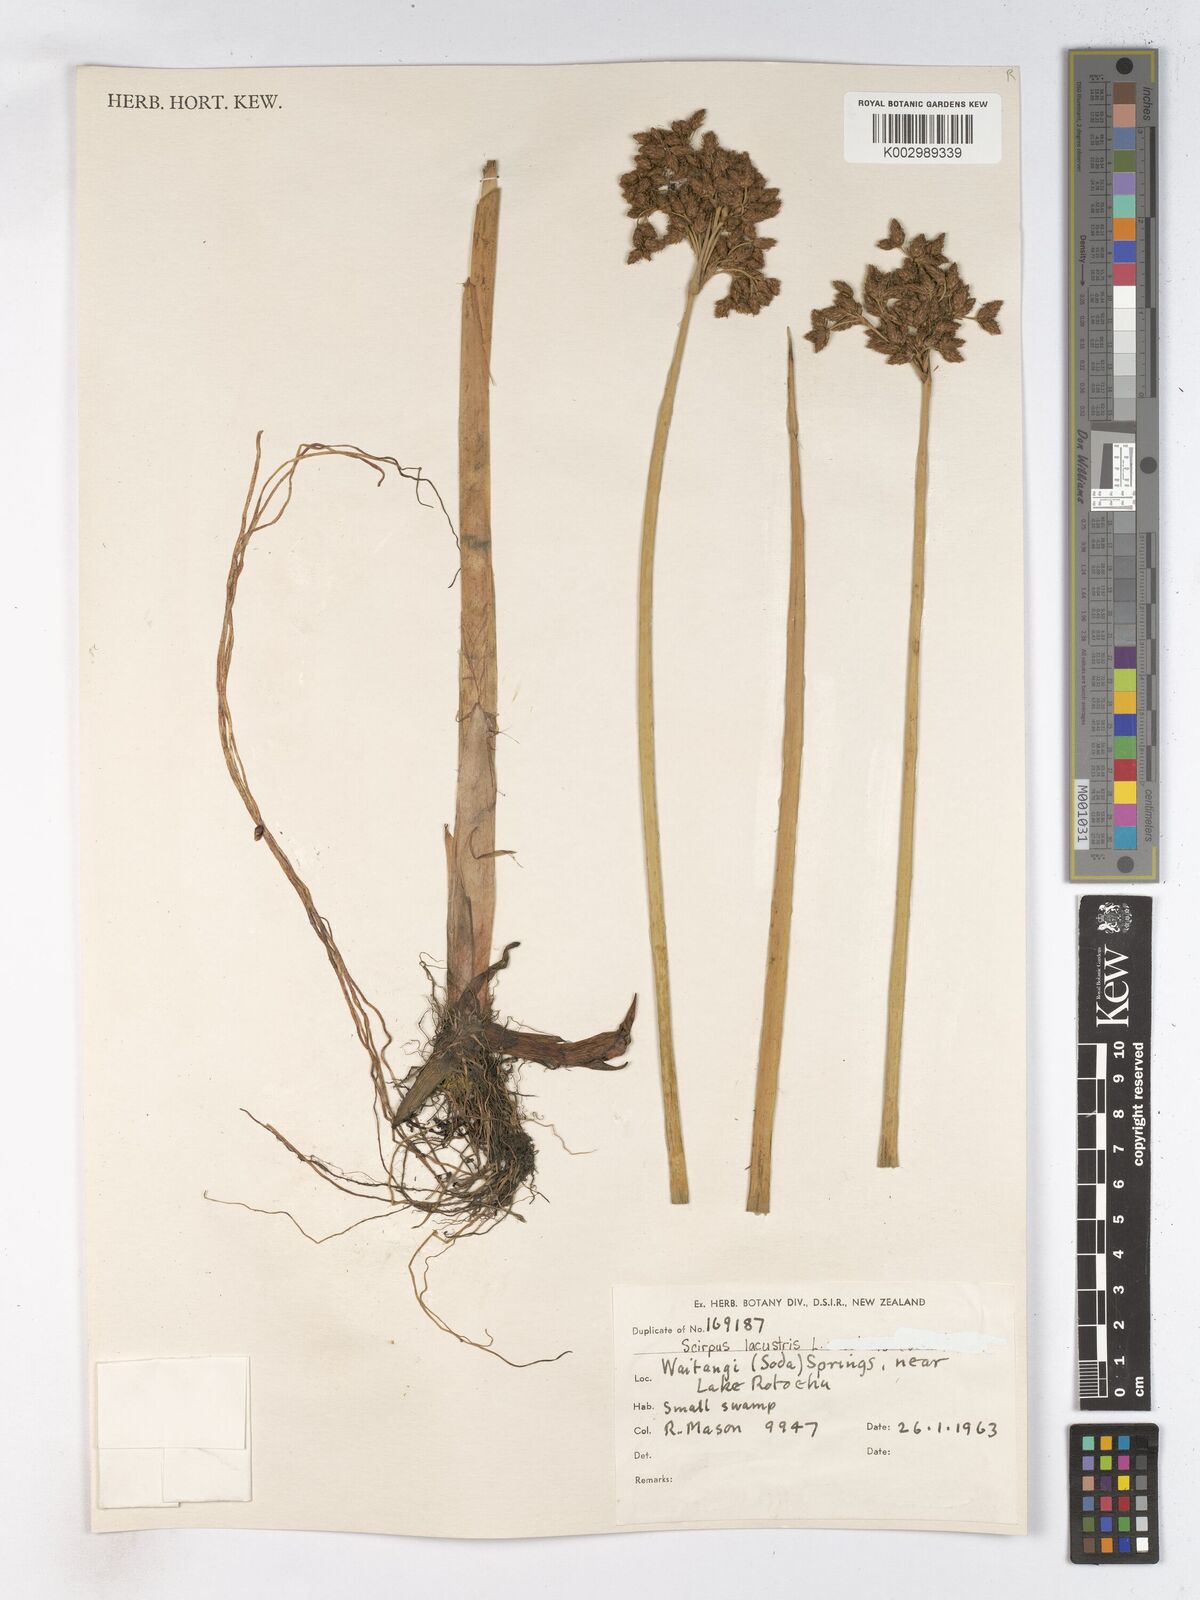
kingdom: Plantae
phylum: Tracheophyta
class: Liliopsida
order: Poales
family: Cyperaceae
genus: Schoenoplectus
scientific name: Schoenoplectus lacustris
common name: Common club-rush
